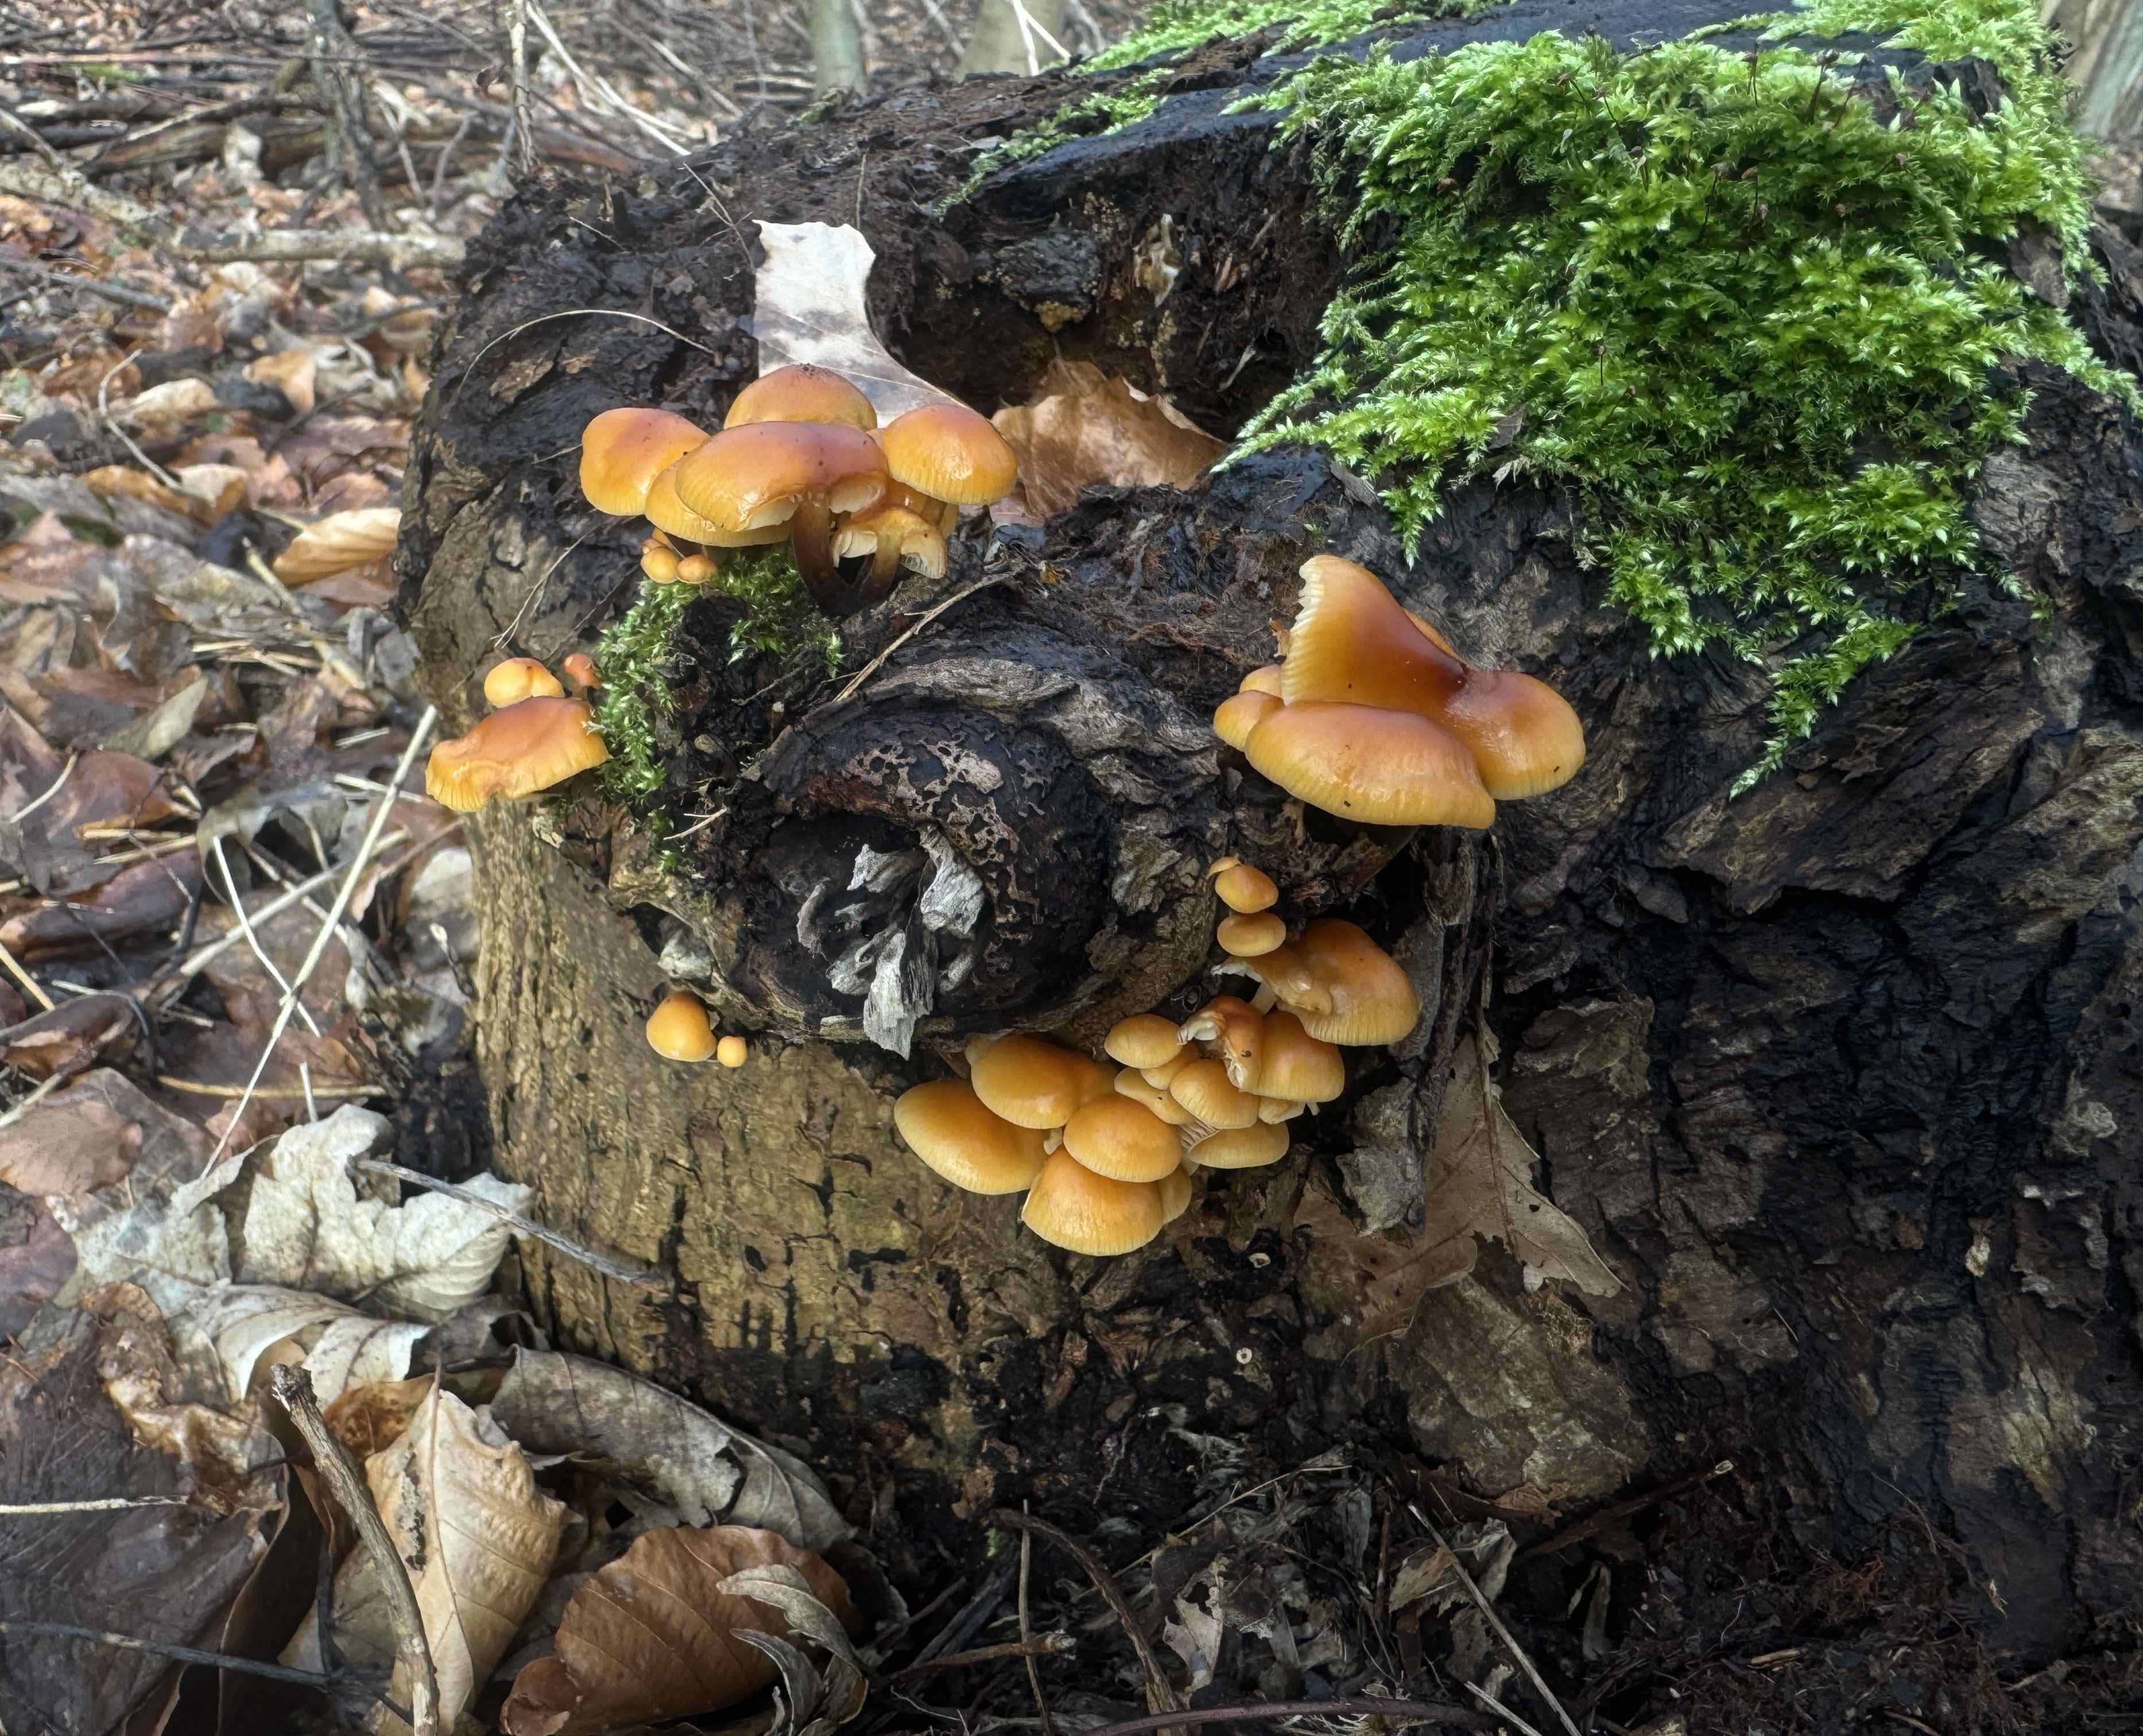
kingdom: Fungi
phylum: Basidiomycota
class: Agaricomycetes
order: Agaricales
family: Physalacriaceae
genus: Flammulina
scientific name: Flammulina velutipes
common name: gul fløjlsfod
